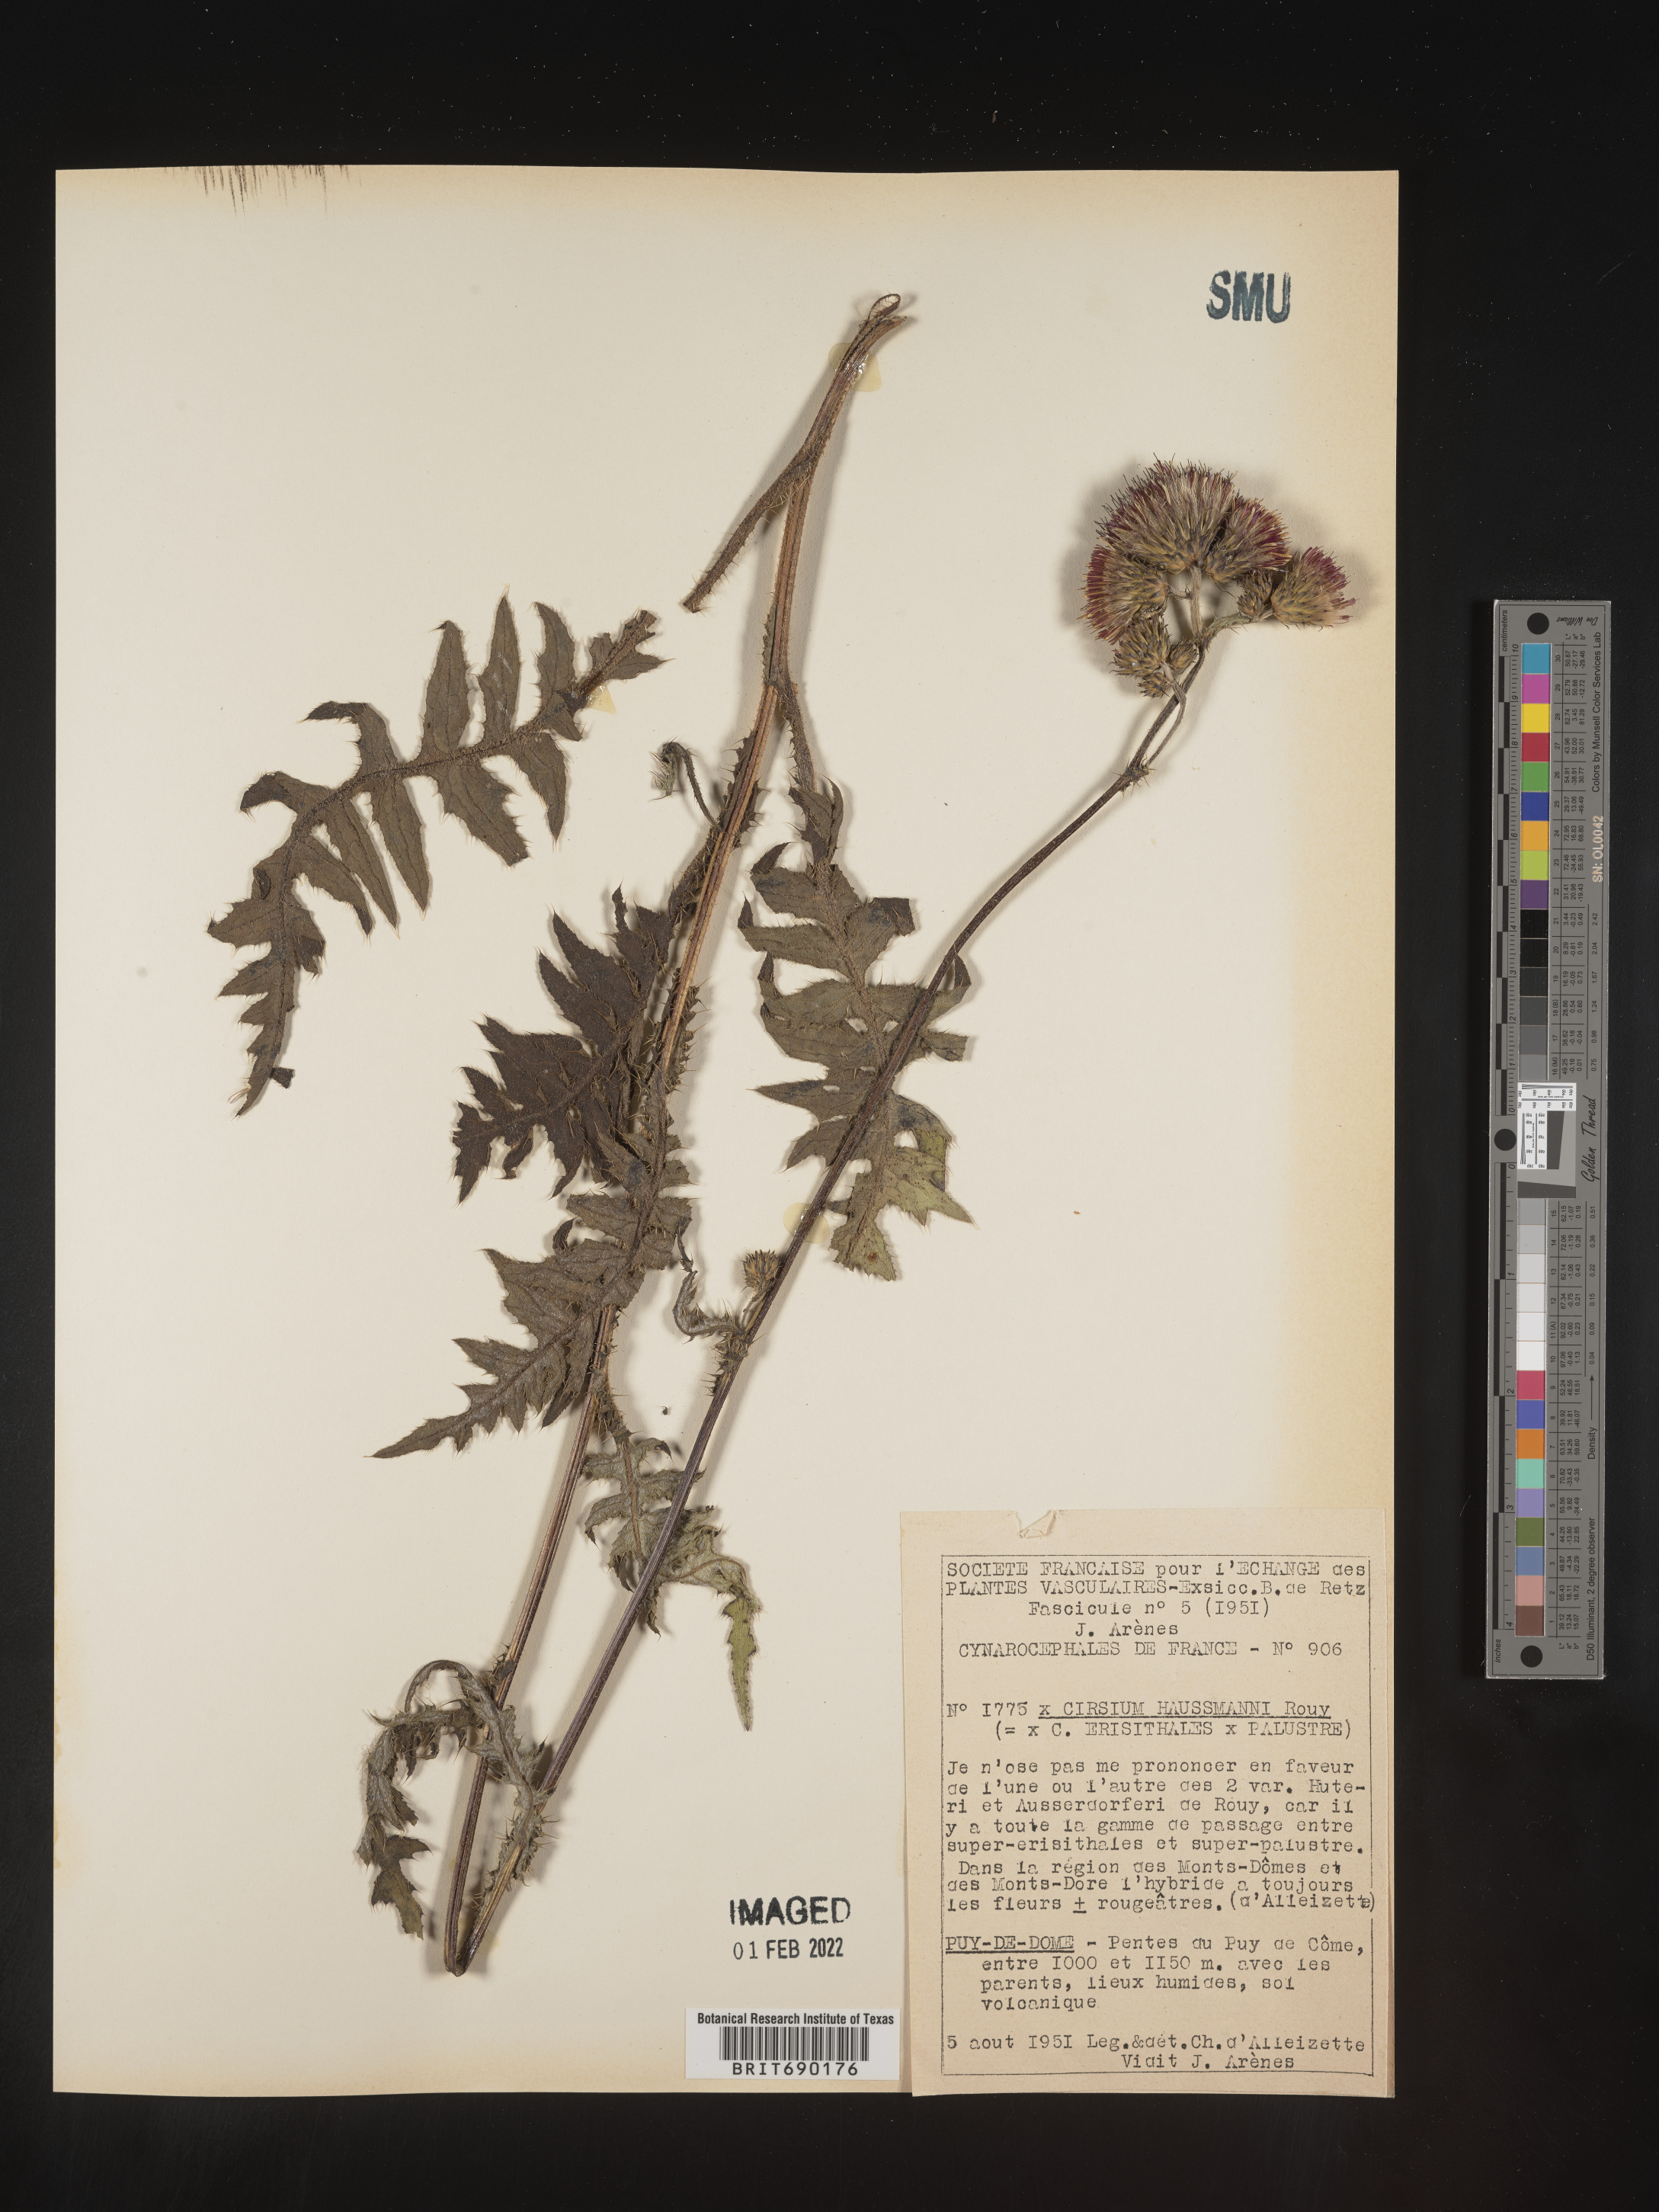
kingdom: Plantae
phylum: Tracheophyta
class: Magnoliopsida
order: Asterales
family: Asteraceae
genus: Cirsium
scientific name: Cirsium
